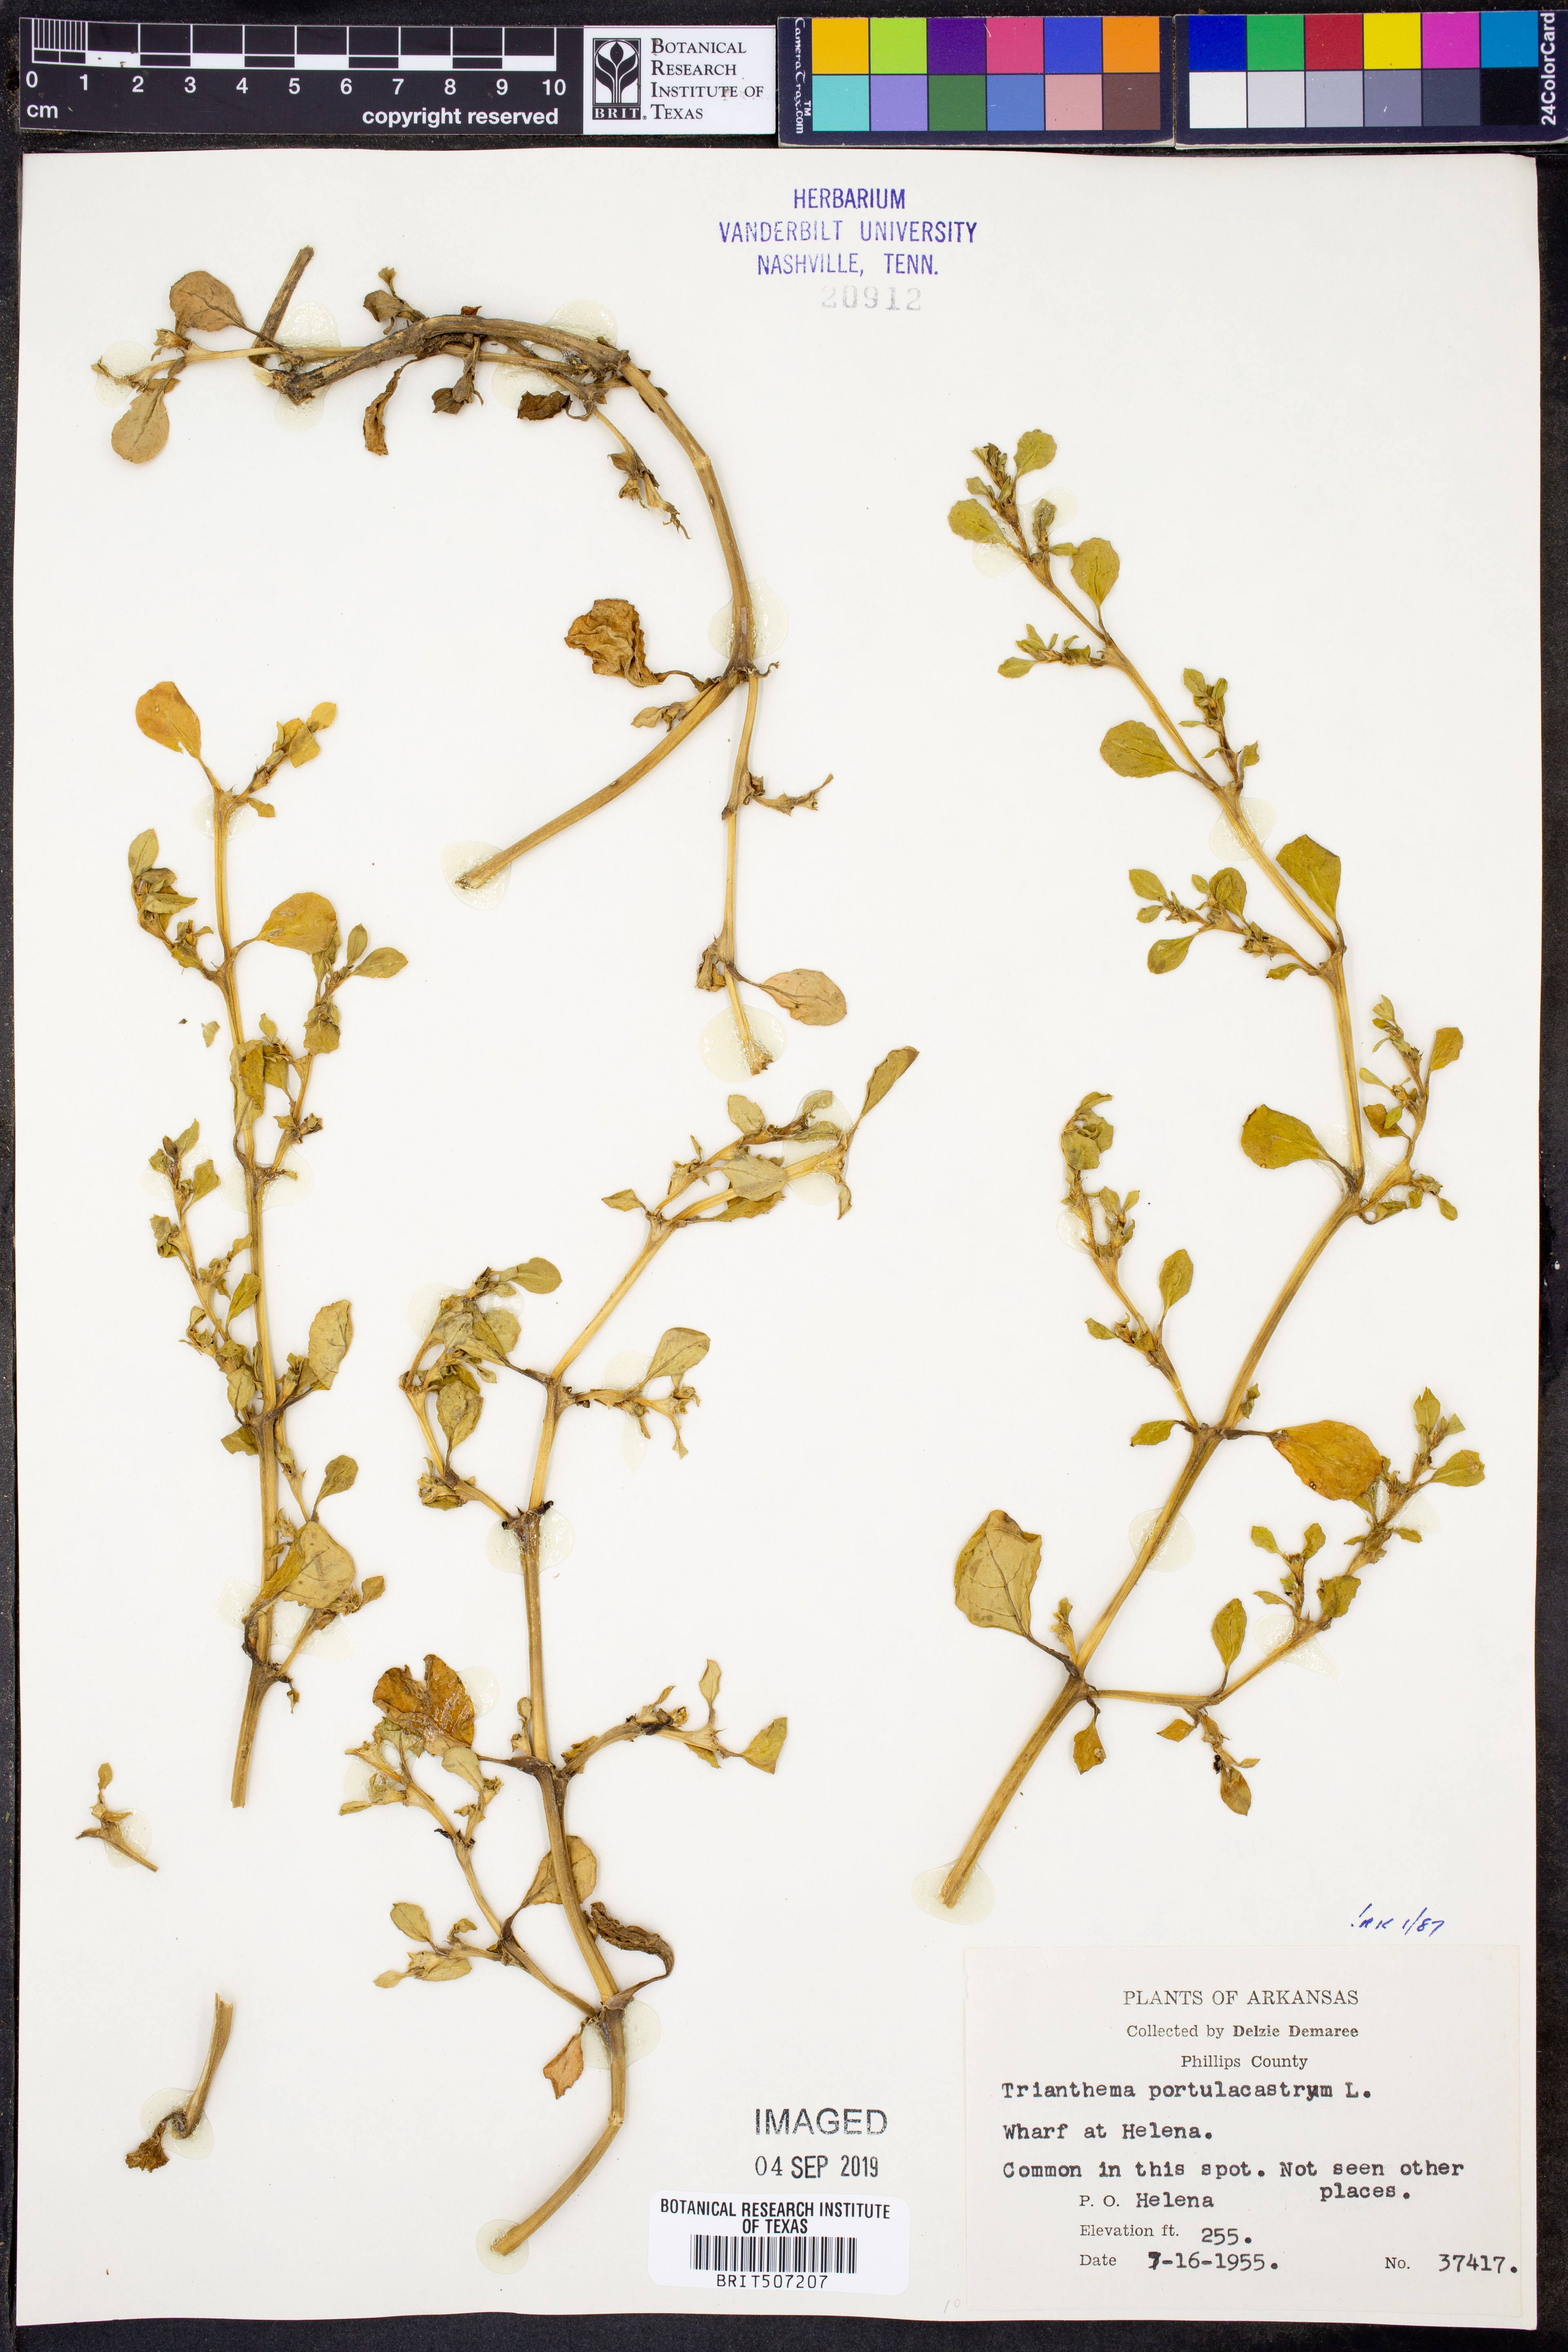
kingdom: Plantae
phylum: Tracheophyta
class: Magnoliopsida
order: Caryophyllales
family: Aizoaceae
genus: Trianthema
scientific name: Trianthema portulacastrum
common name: Desert horsepurslane
